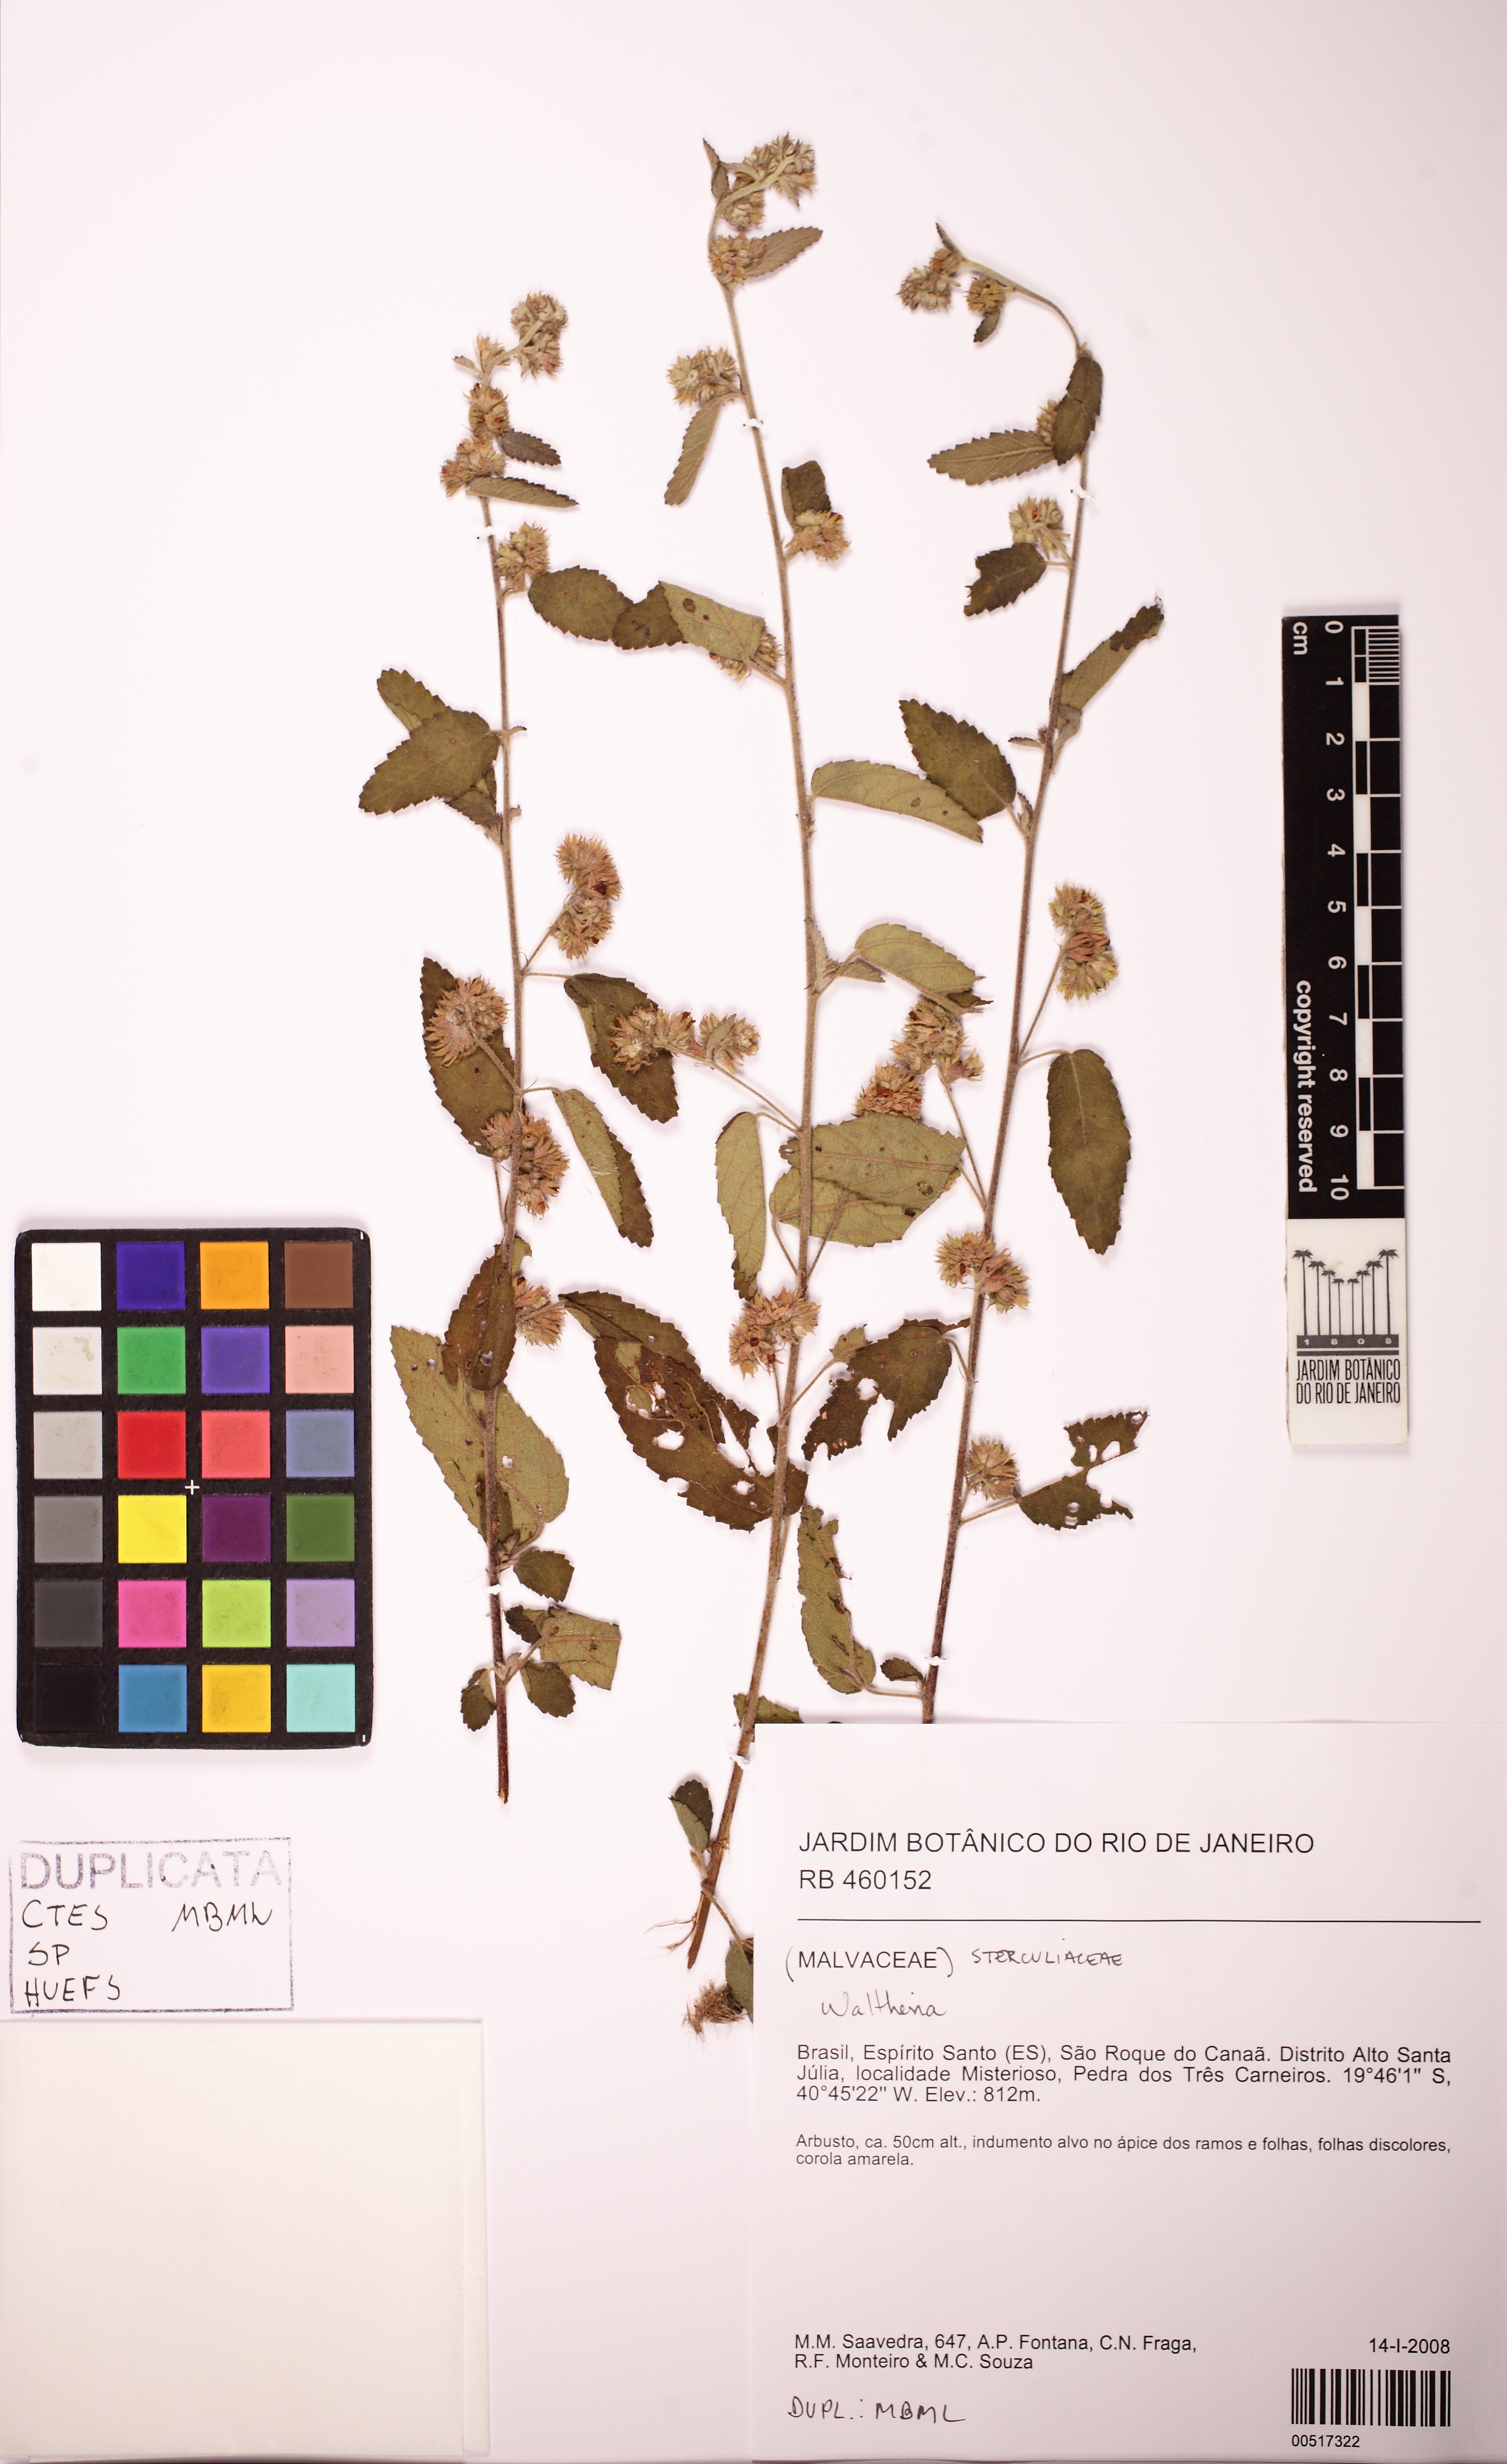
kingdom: Plantae
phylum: Tracheophyta
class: Magnoliopsida
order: Malvales
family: Malvaceae
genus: Waltheria
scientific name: Waltheria
